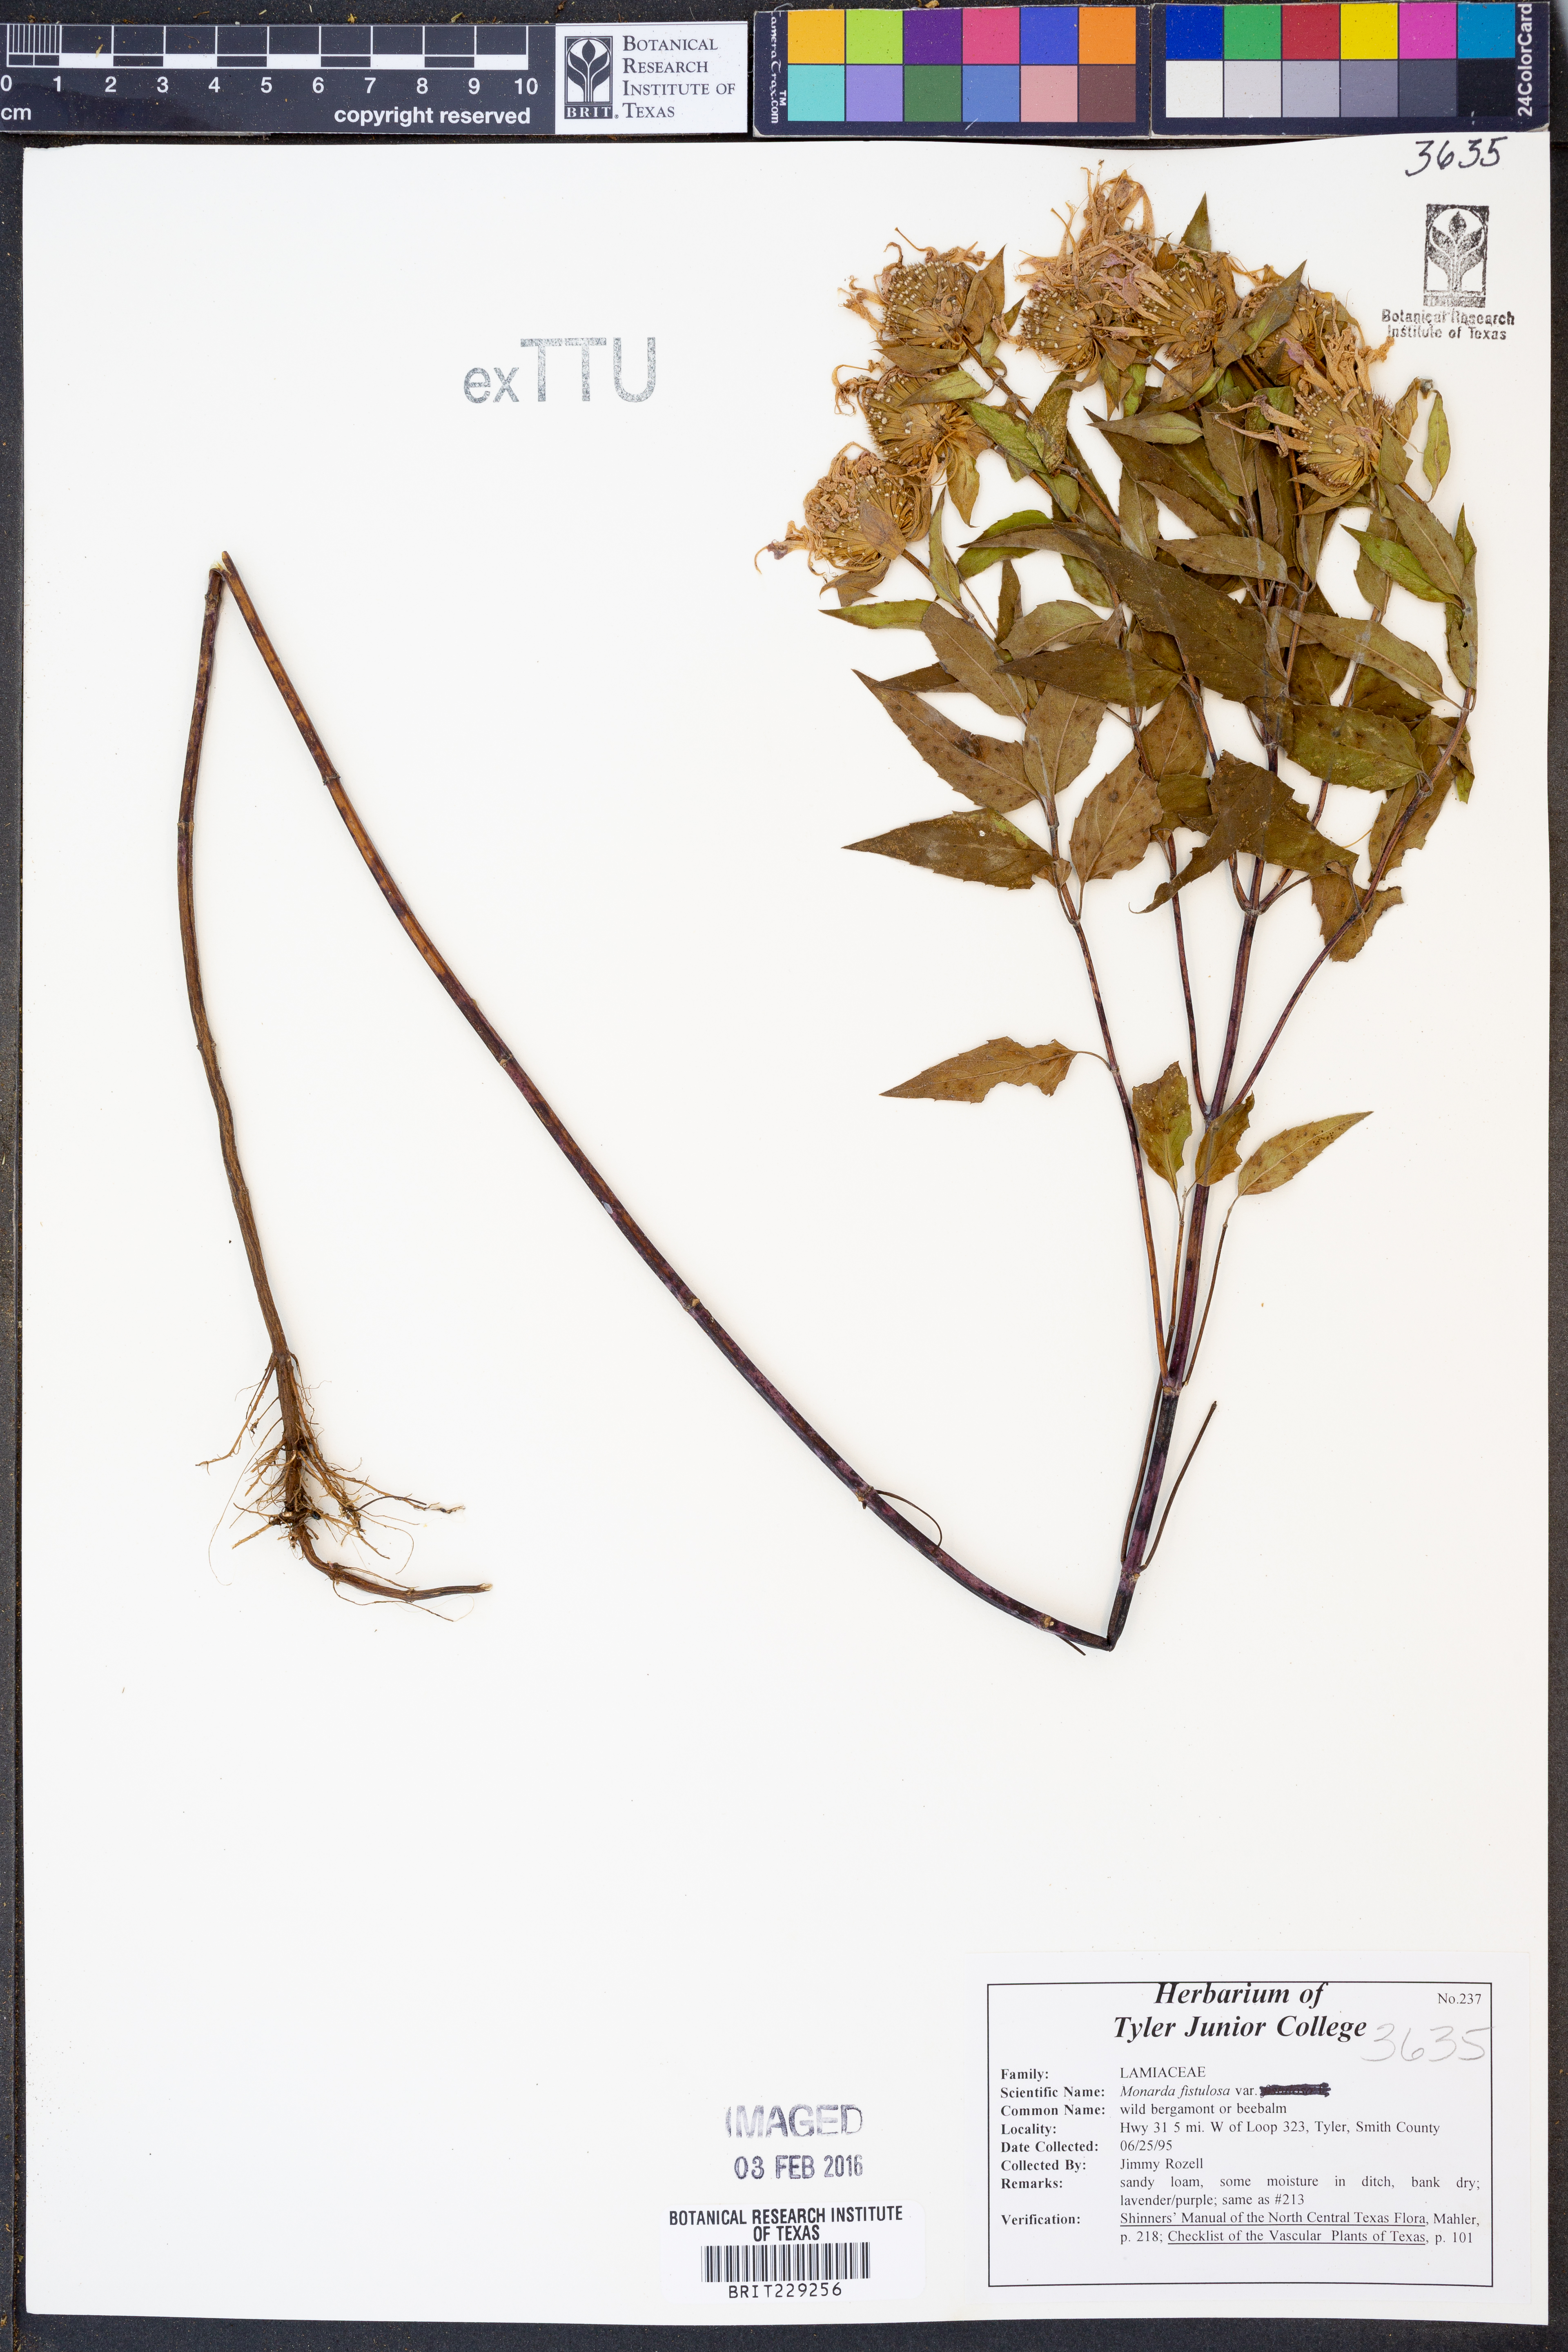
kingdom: Plantae
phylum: Tracheophyta
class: Magnoliopsida
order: Lamiales
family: Lamiaceae
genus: Monarda
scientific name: Monarda fistulosa
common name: Purple beebalm
